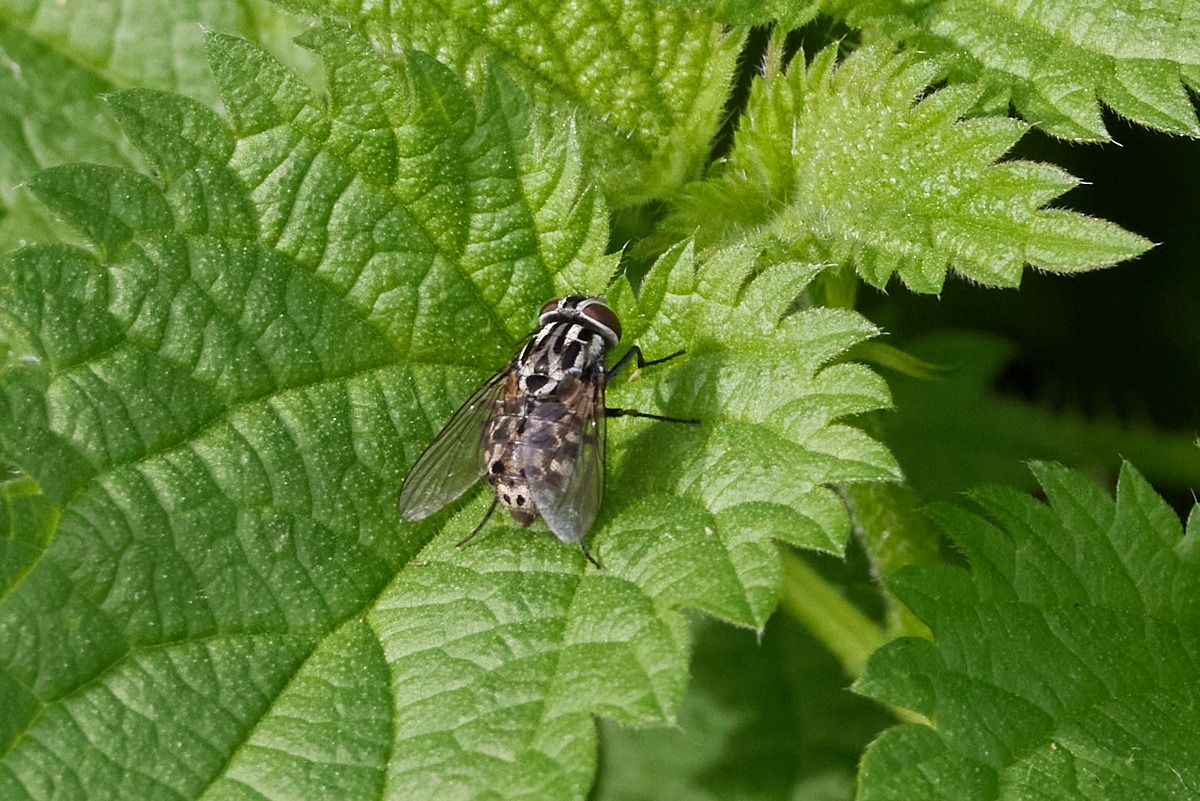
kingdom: Animalia
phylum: Arthropoda
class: Insecta
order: Diptera
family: Muscidae
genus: Graphomya
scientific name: Graphomya maculata
